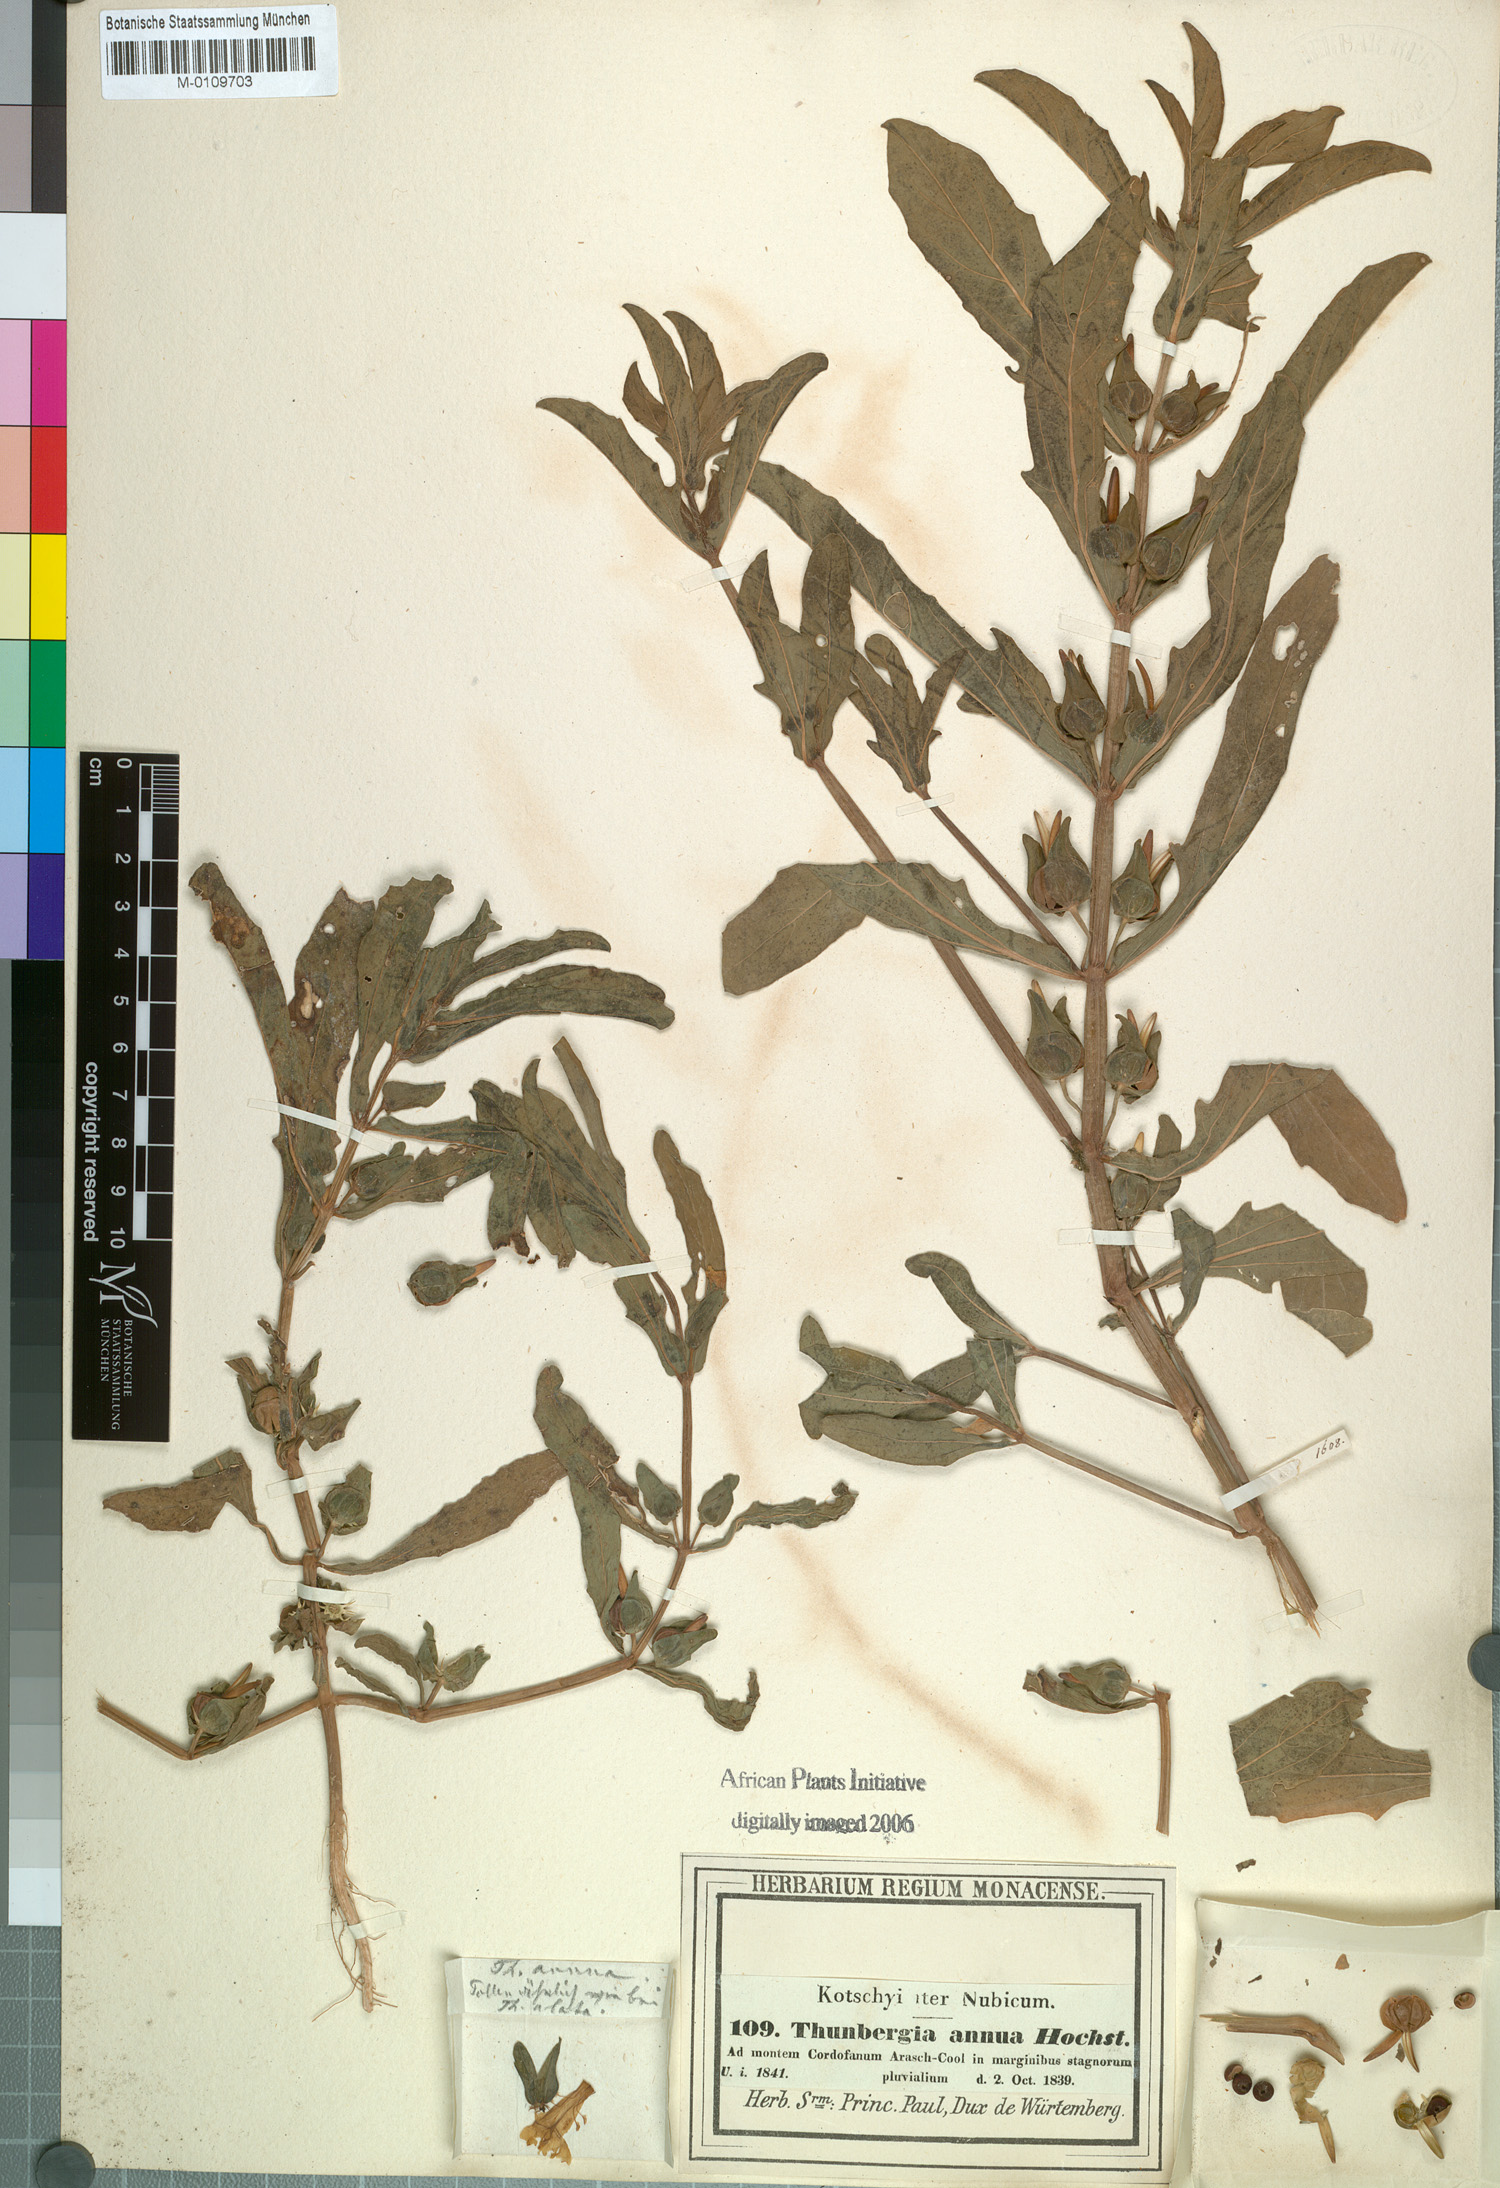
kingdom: Plantae
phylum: Tracheophyta
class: Magnoliopsida
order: Lamiales
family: Acanthaceae
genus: Thunbergia
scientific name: Thunbergia annua
